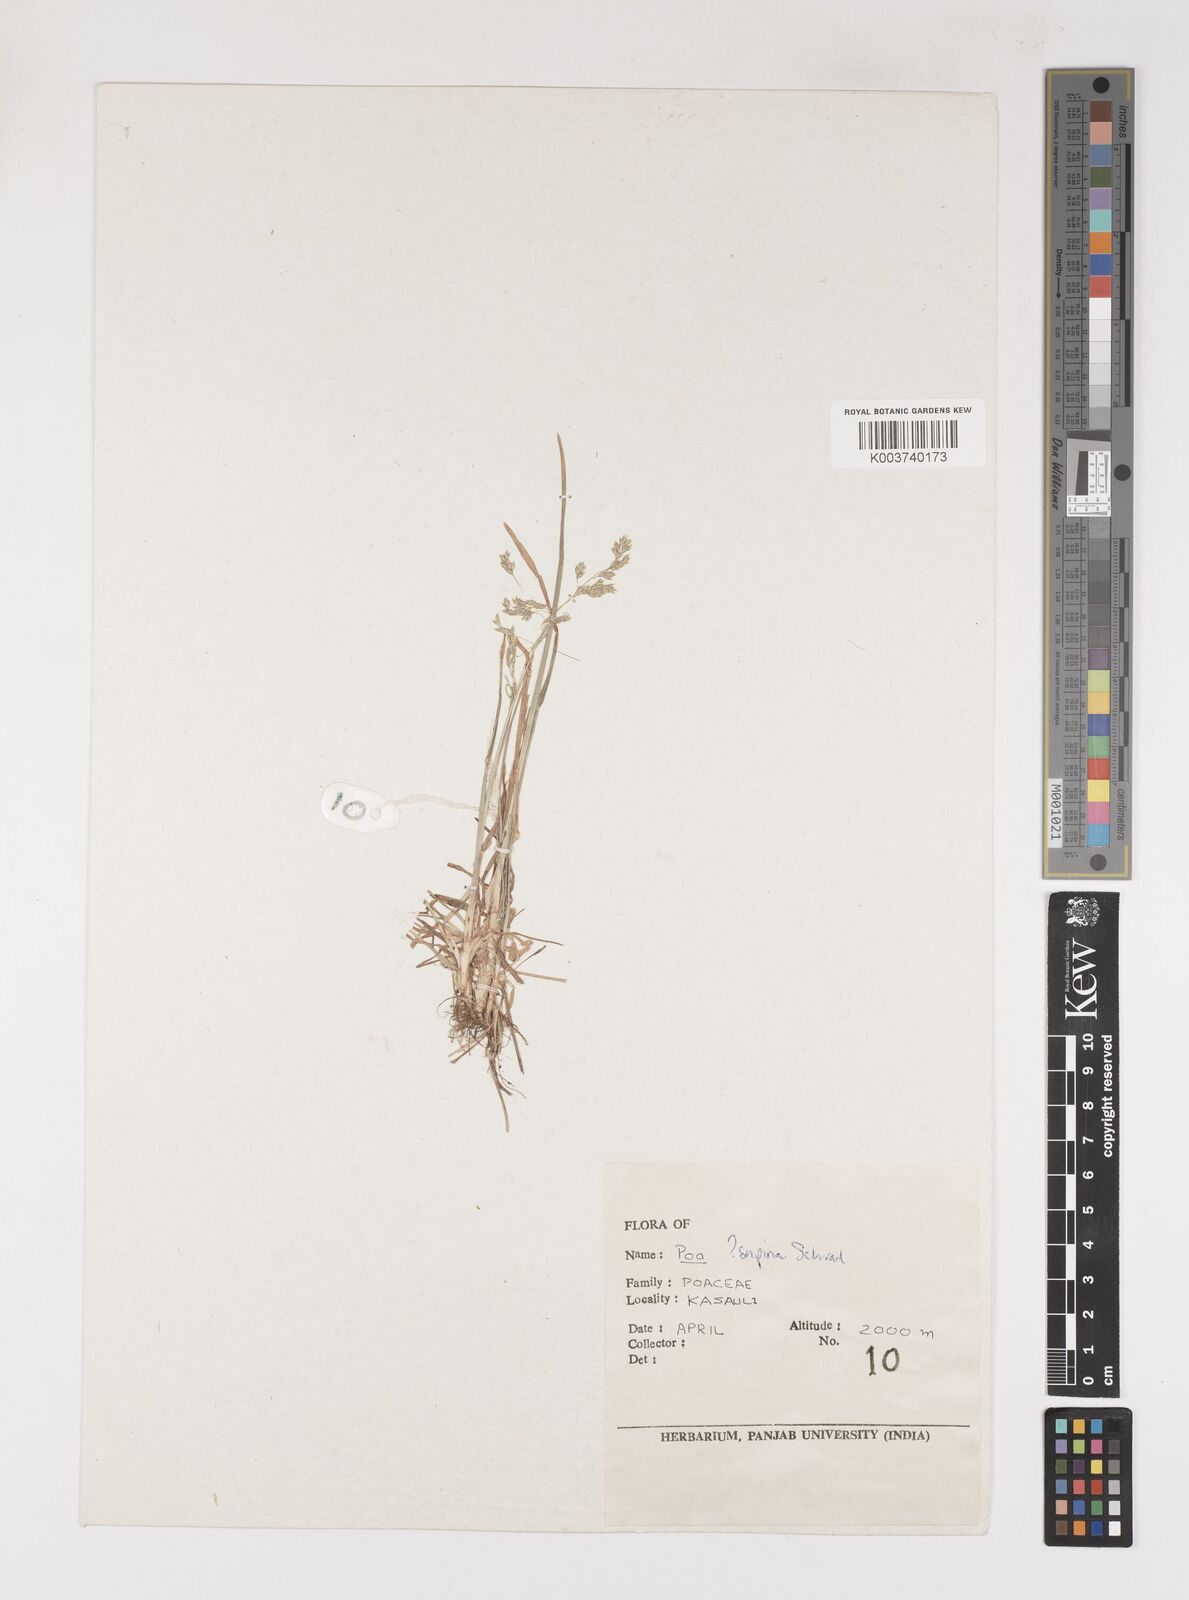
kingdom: Plantae
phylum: Tracheophyta
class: Liliopsida
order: Poales
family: Poaceae
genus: Poa
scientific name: Poa supina
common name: Supina bluegrass
